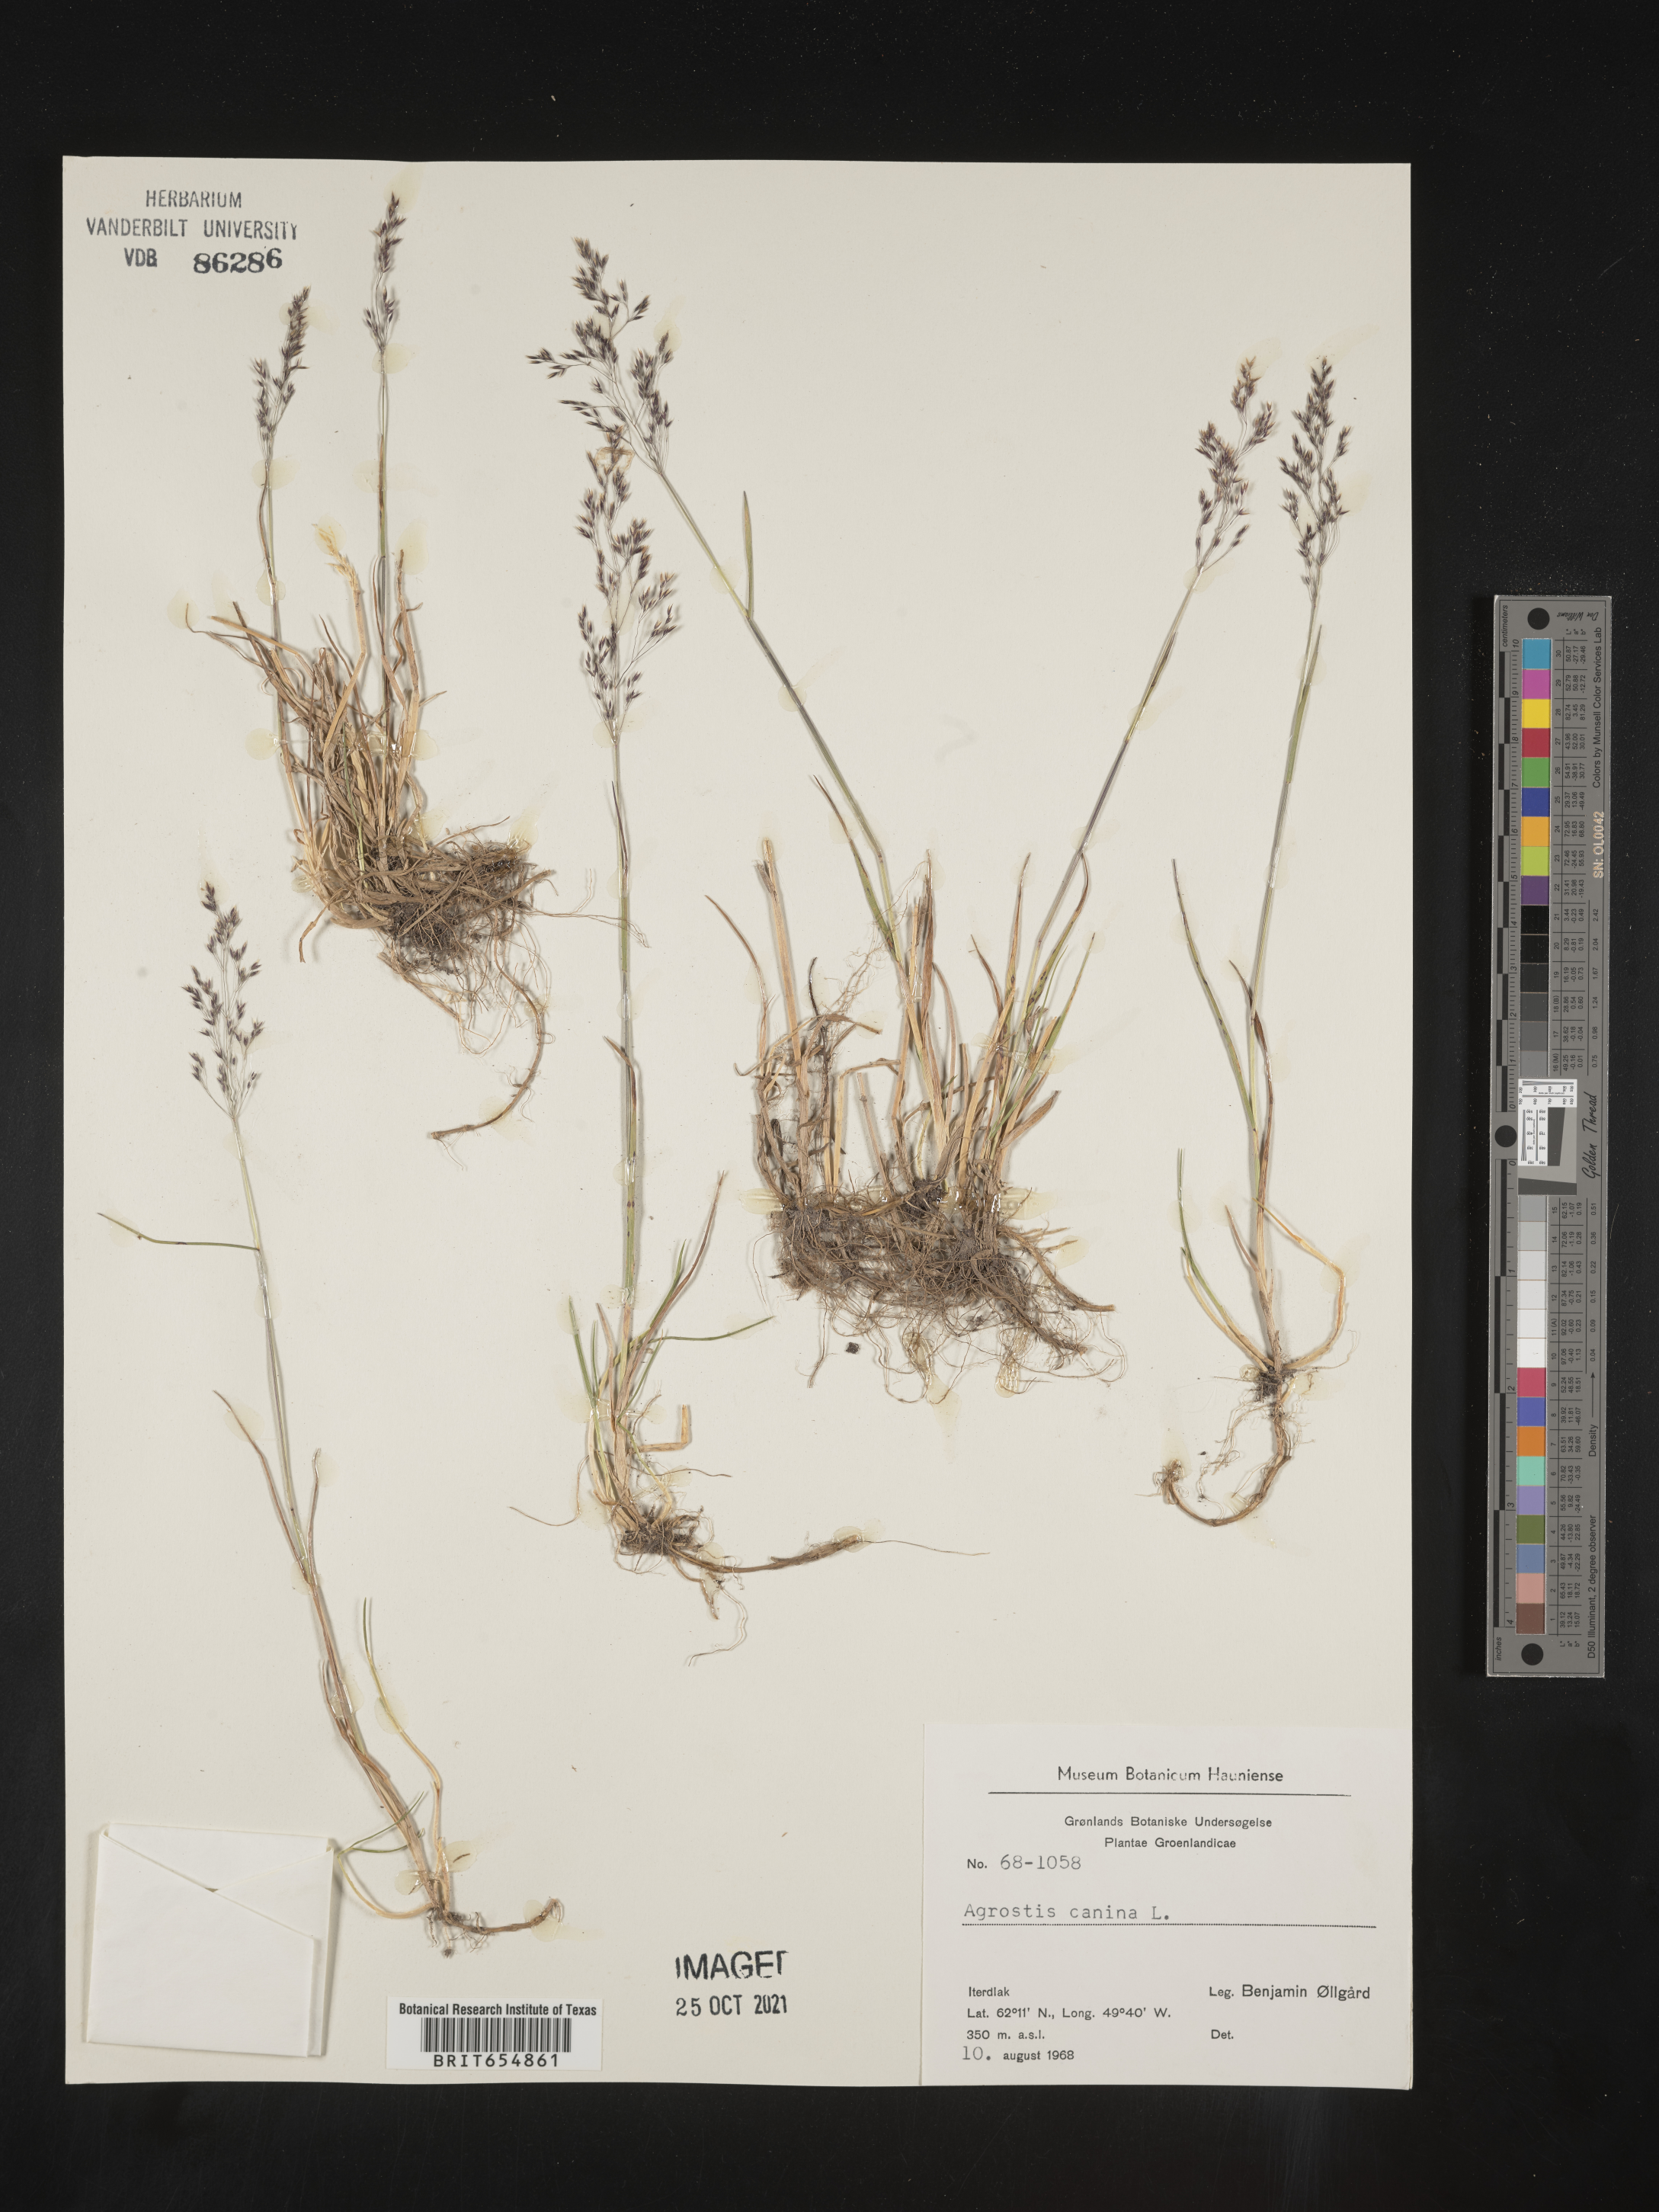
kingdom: Plantae
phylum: Tracheophyta
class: Liliopsida
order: Poales
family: Poaceae
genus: Agrostis
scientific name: Agrostis
